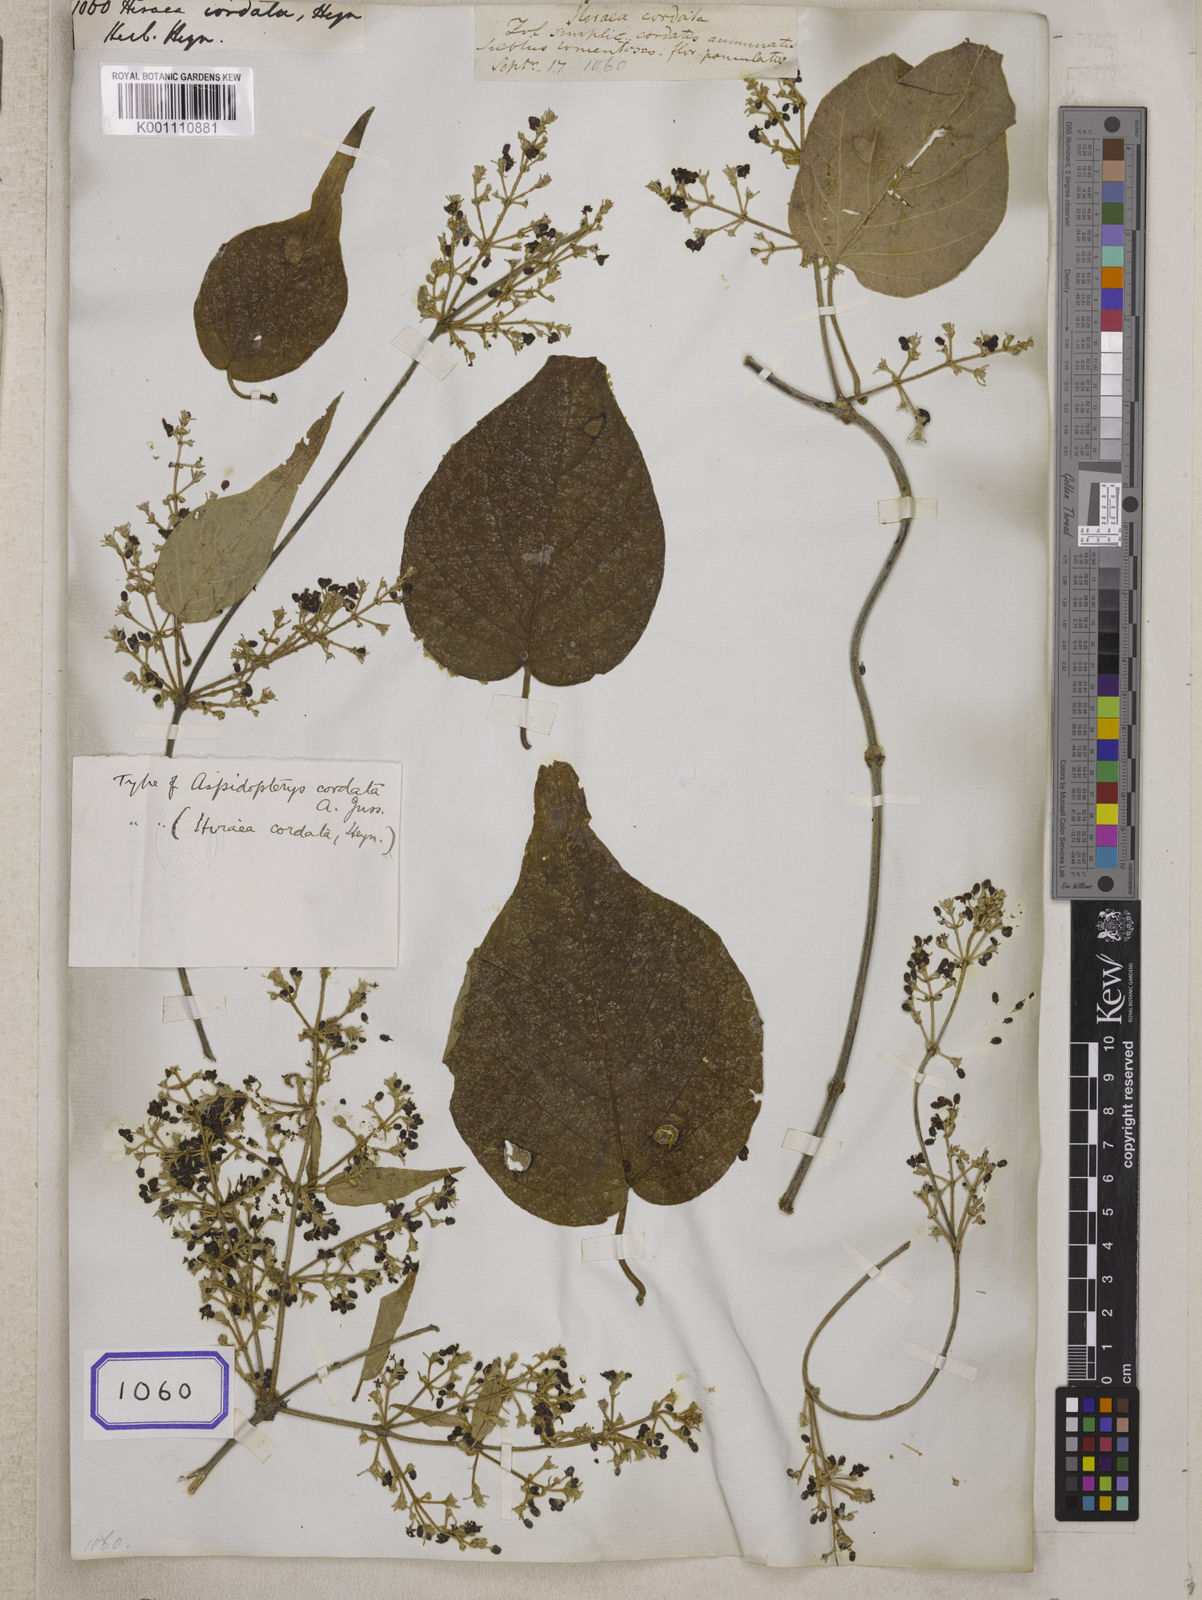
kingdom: Plantae
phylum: Tracheophyta
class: Magnoliopsida
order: Malpighiales
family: Malpighiaceae
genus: Hiraea
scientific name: Hiraea
